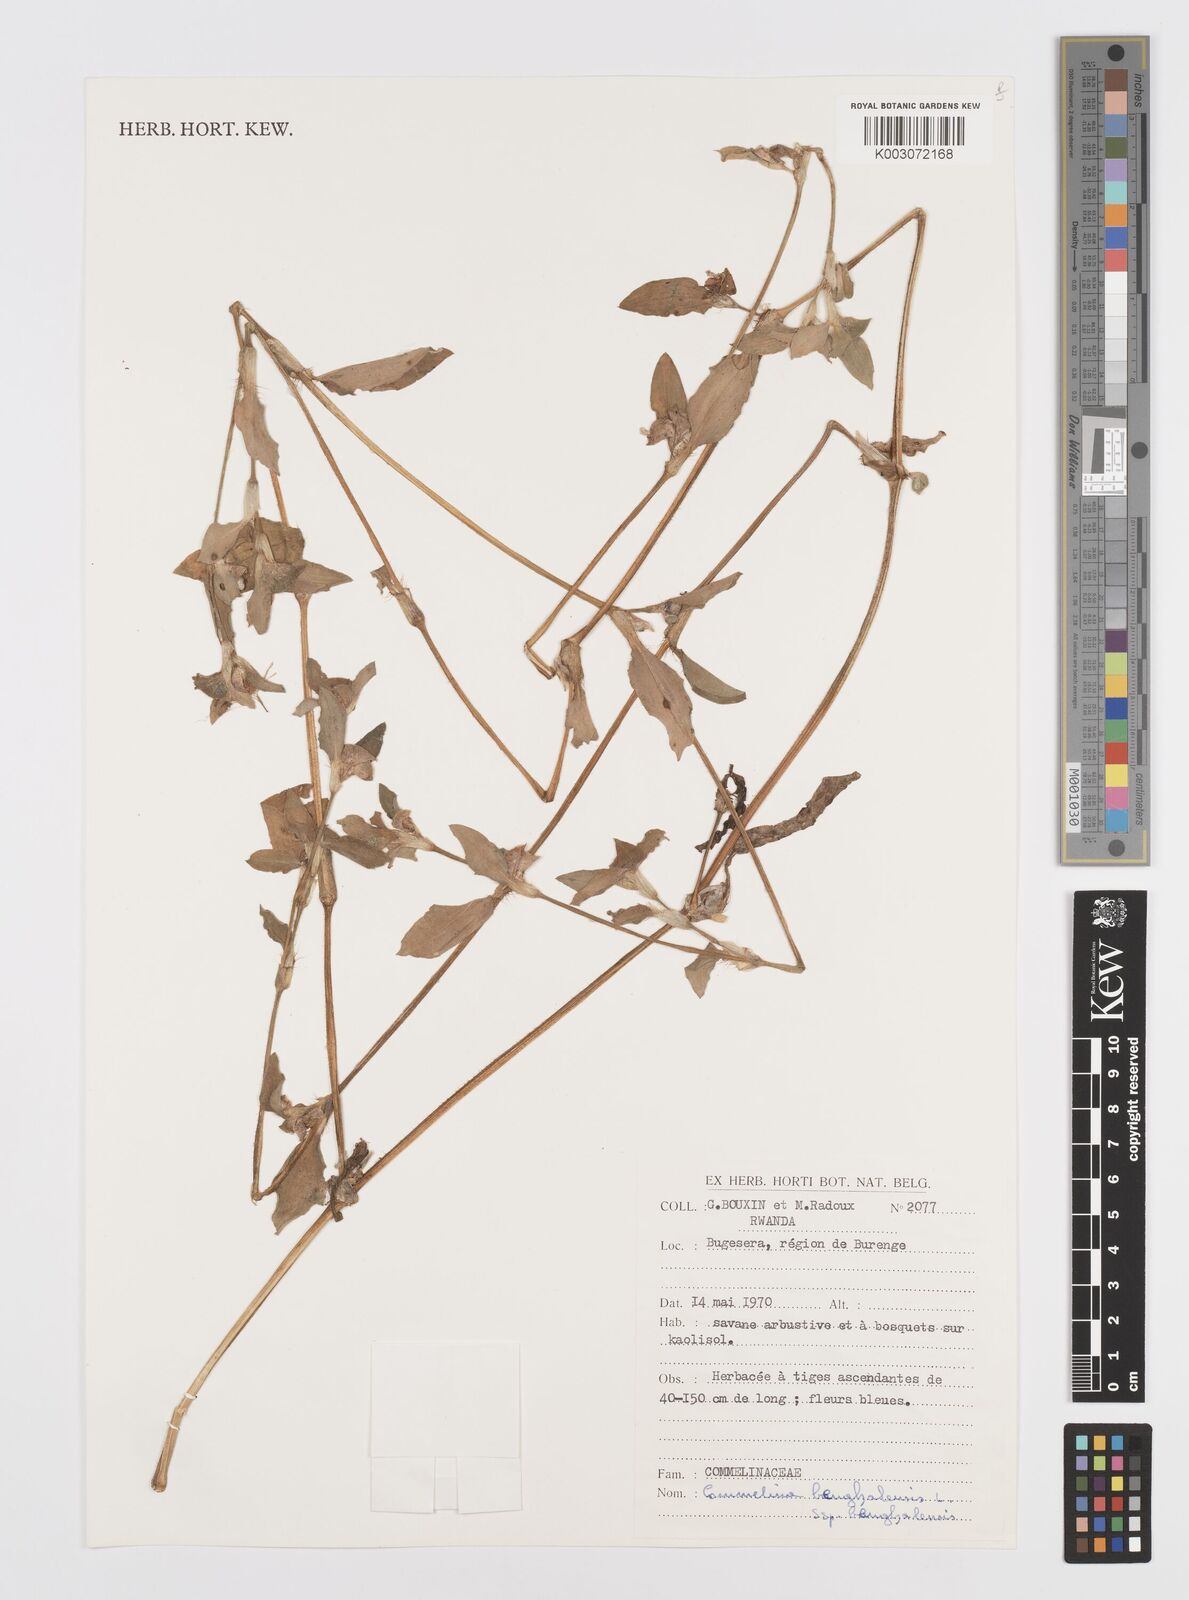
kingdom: Plantae
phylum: Tracheophyta
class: Liliopsida
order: Commelinales
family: Commelinaceae
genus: Commelina
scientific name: Commelina benghalensis
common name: Jio
